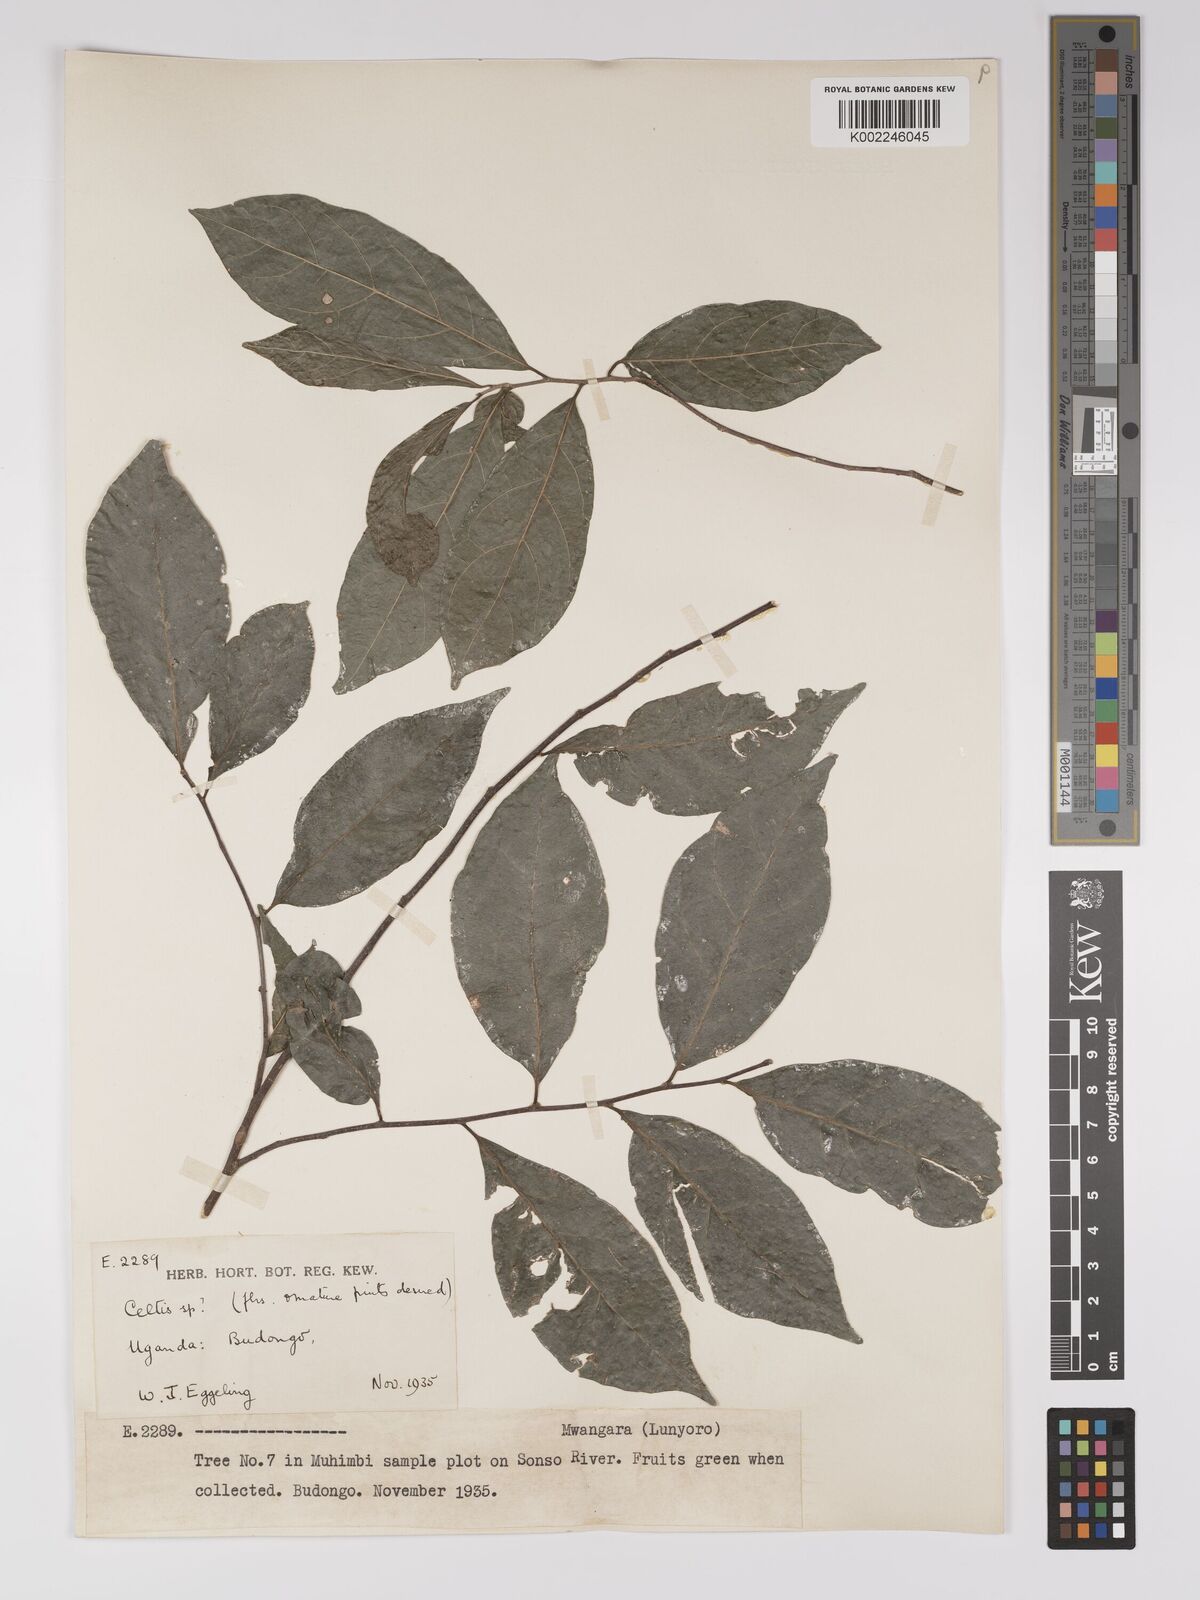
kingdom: Plantae
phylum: Tracheophyta
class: Magnoliopsida
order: Malpighiales
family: Euphorbiaceae
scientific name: Euphorbiaceae
